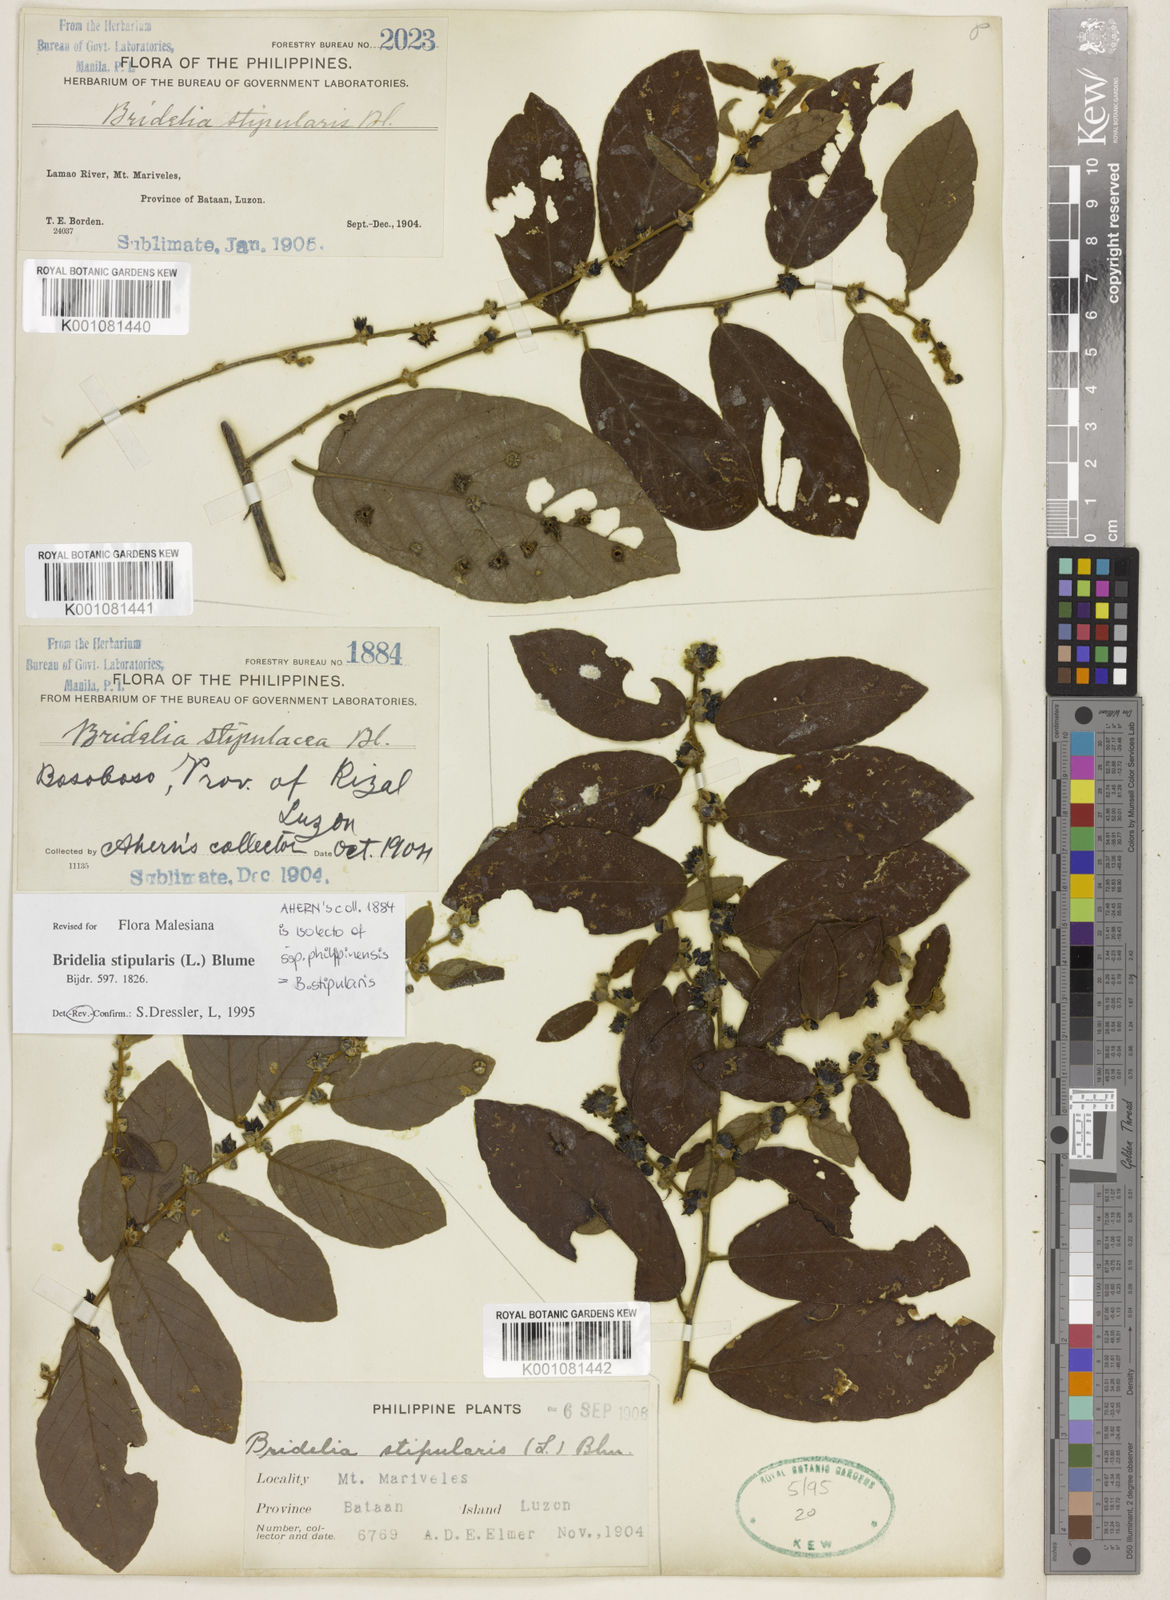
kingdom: Plantae
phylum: Tracheophyta
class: Magnoliopsida
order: Malpighiales
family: Phyllanthaceae
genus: Bridelia
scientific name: Bridelia stipularis
